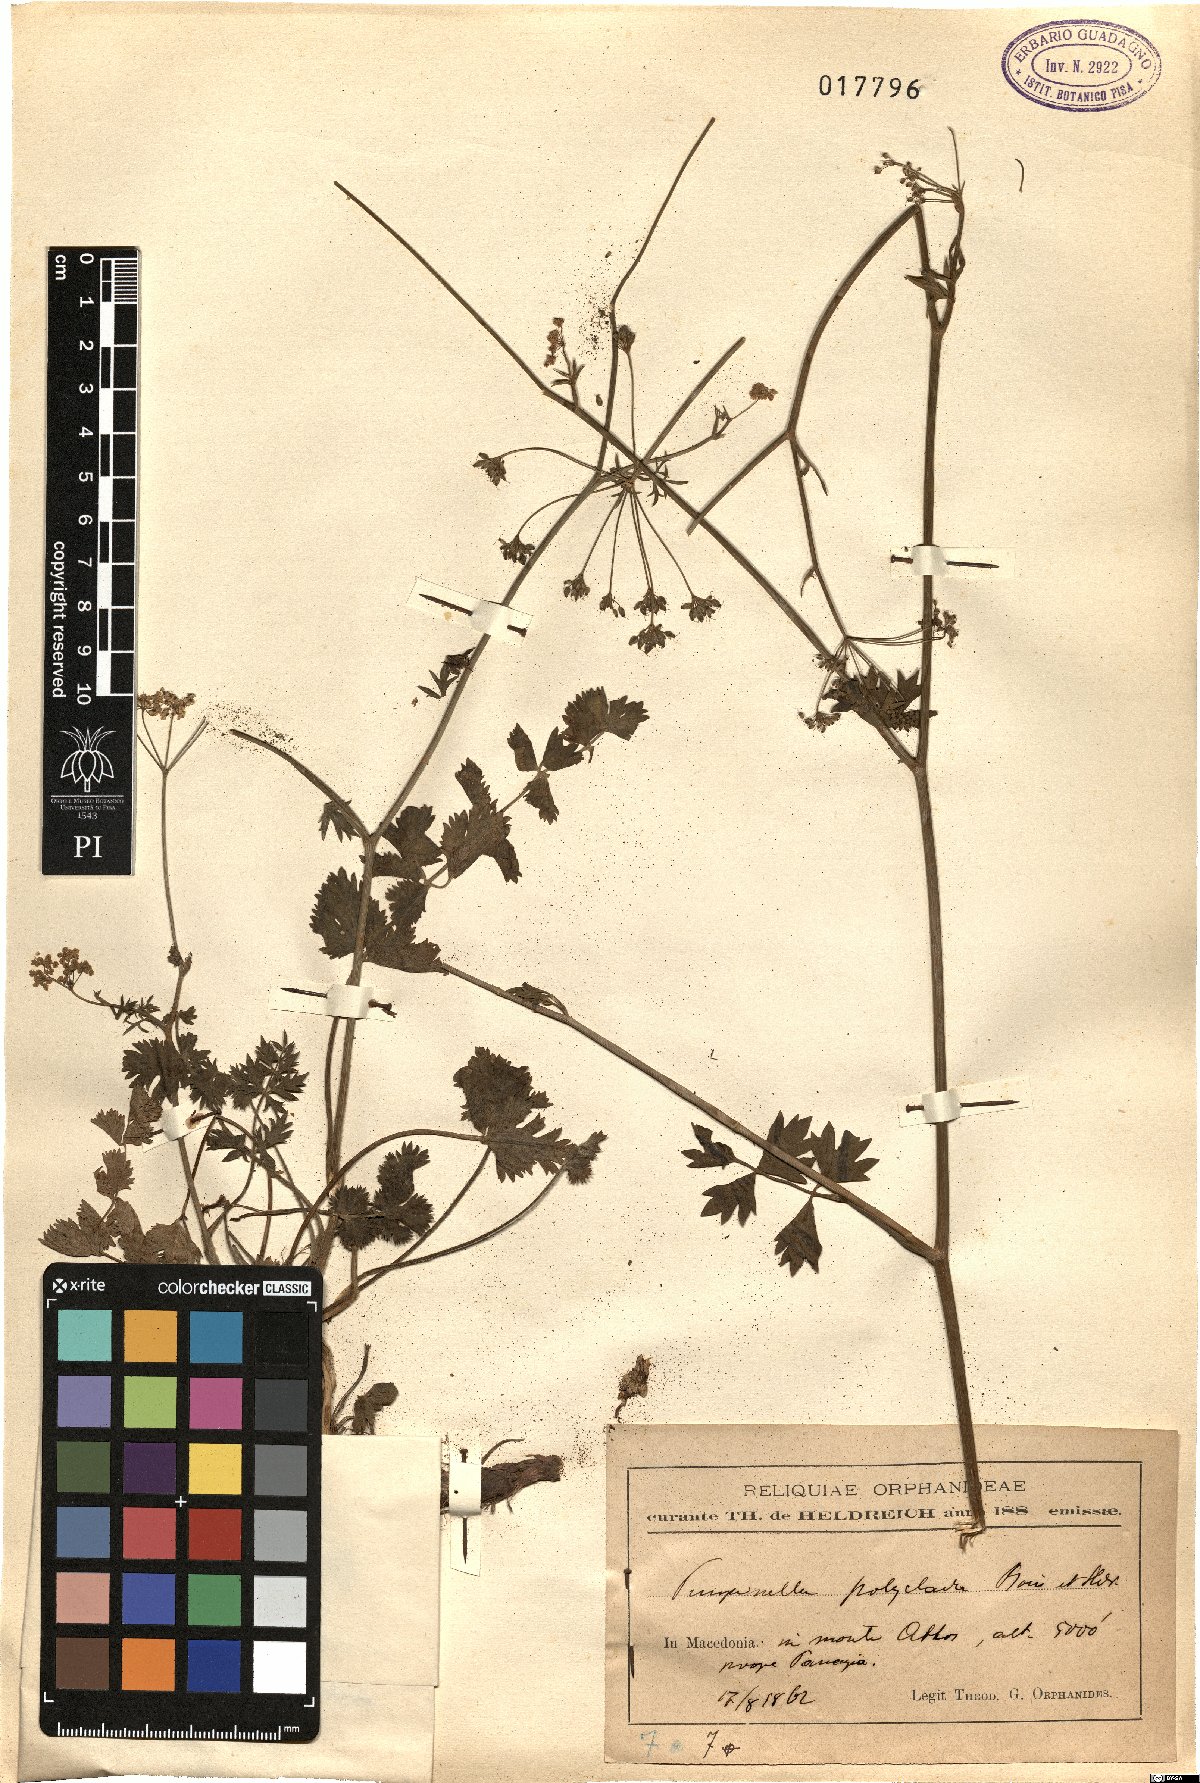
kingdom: Plantae
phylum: Tracheophyta
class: Magnoliopsida
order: Apiales
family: Apiaceae
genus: Pimpinella
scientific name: Pimpinella tragium
